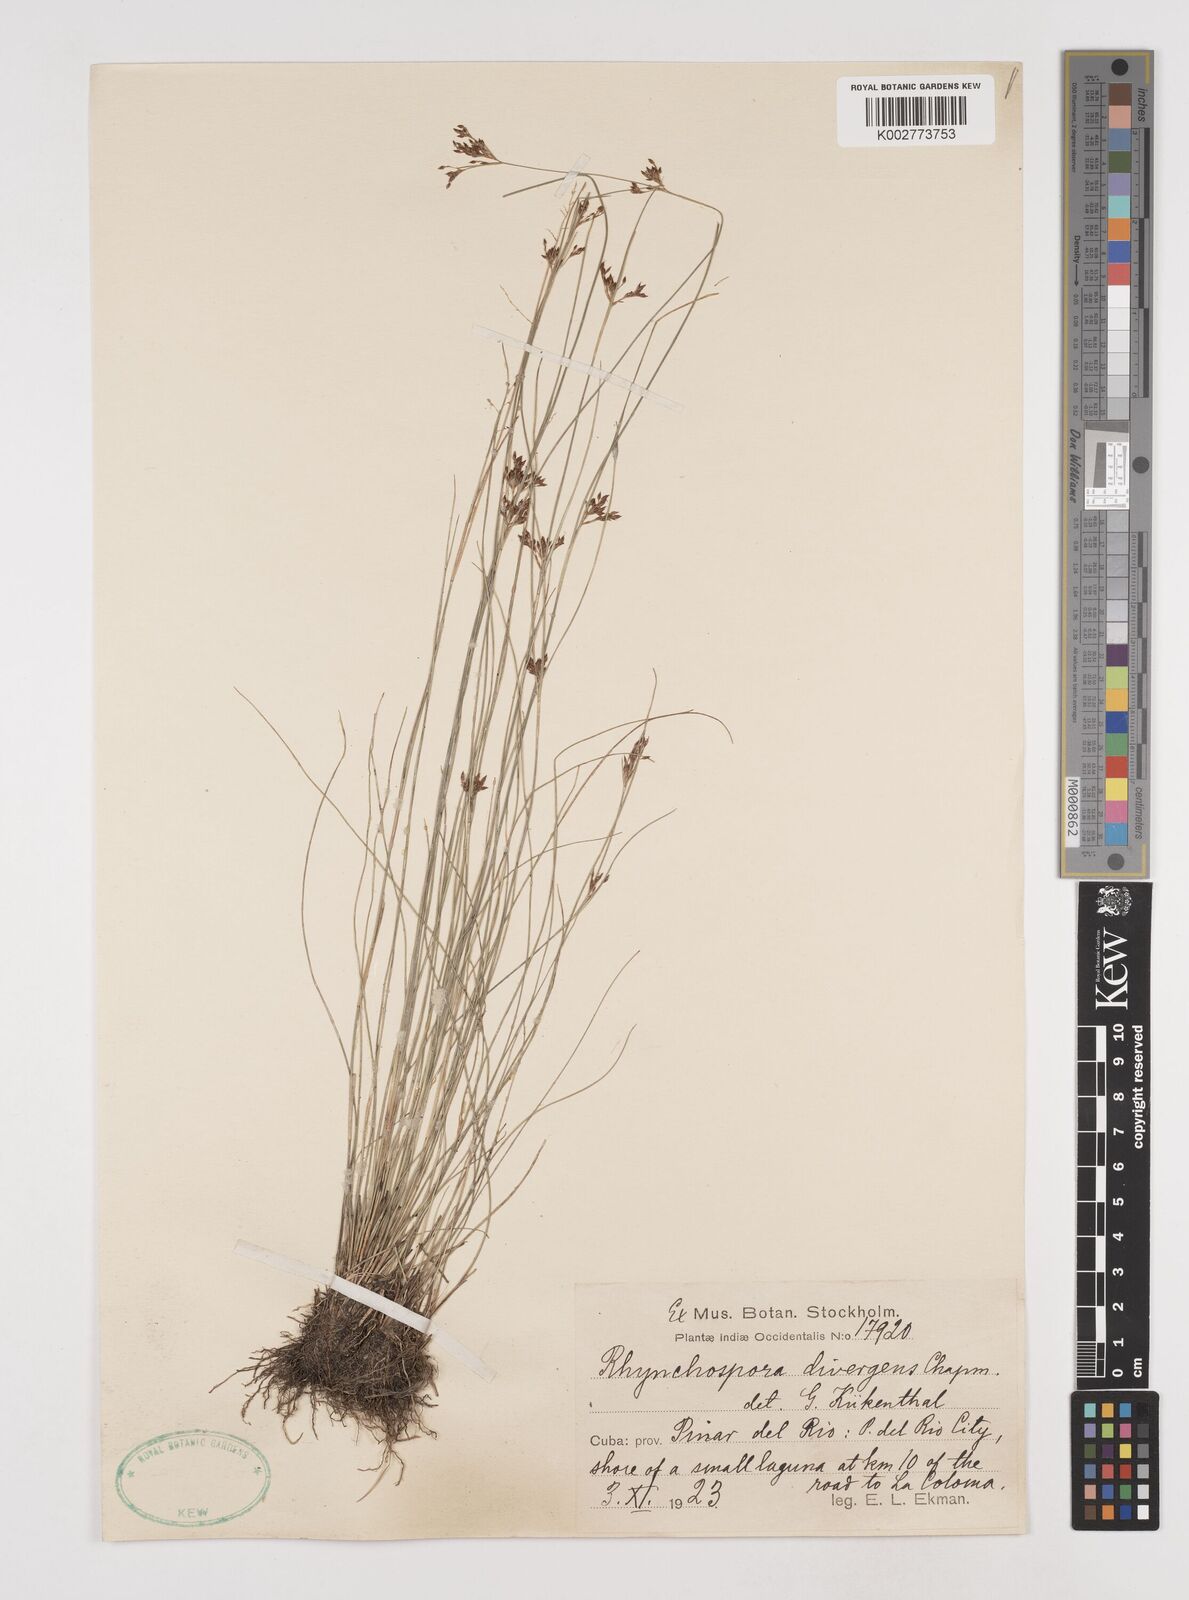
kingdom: Plantae
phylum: Tracheophyta
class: Liliopsida
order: Poales
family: Cyperaceae
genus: Rhynchospora
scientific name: Rhynchospora divergens
